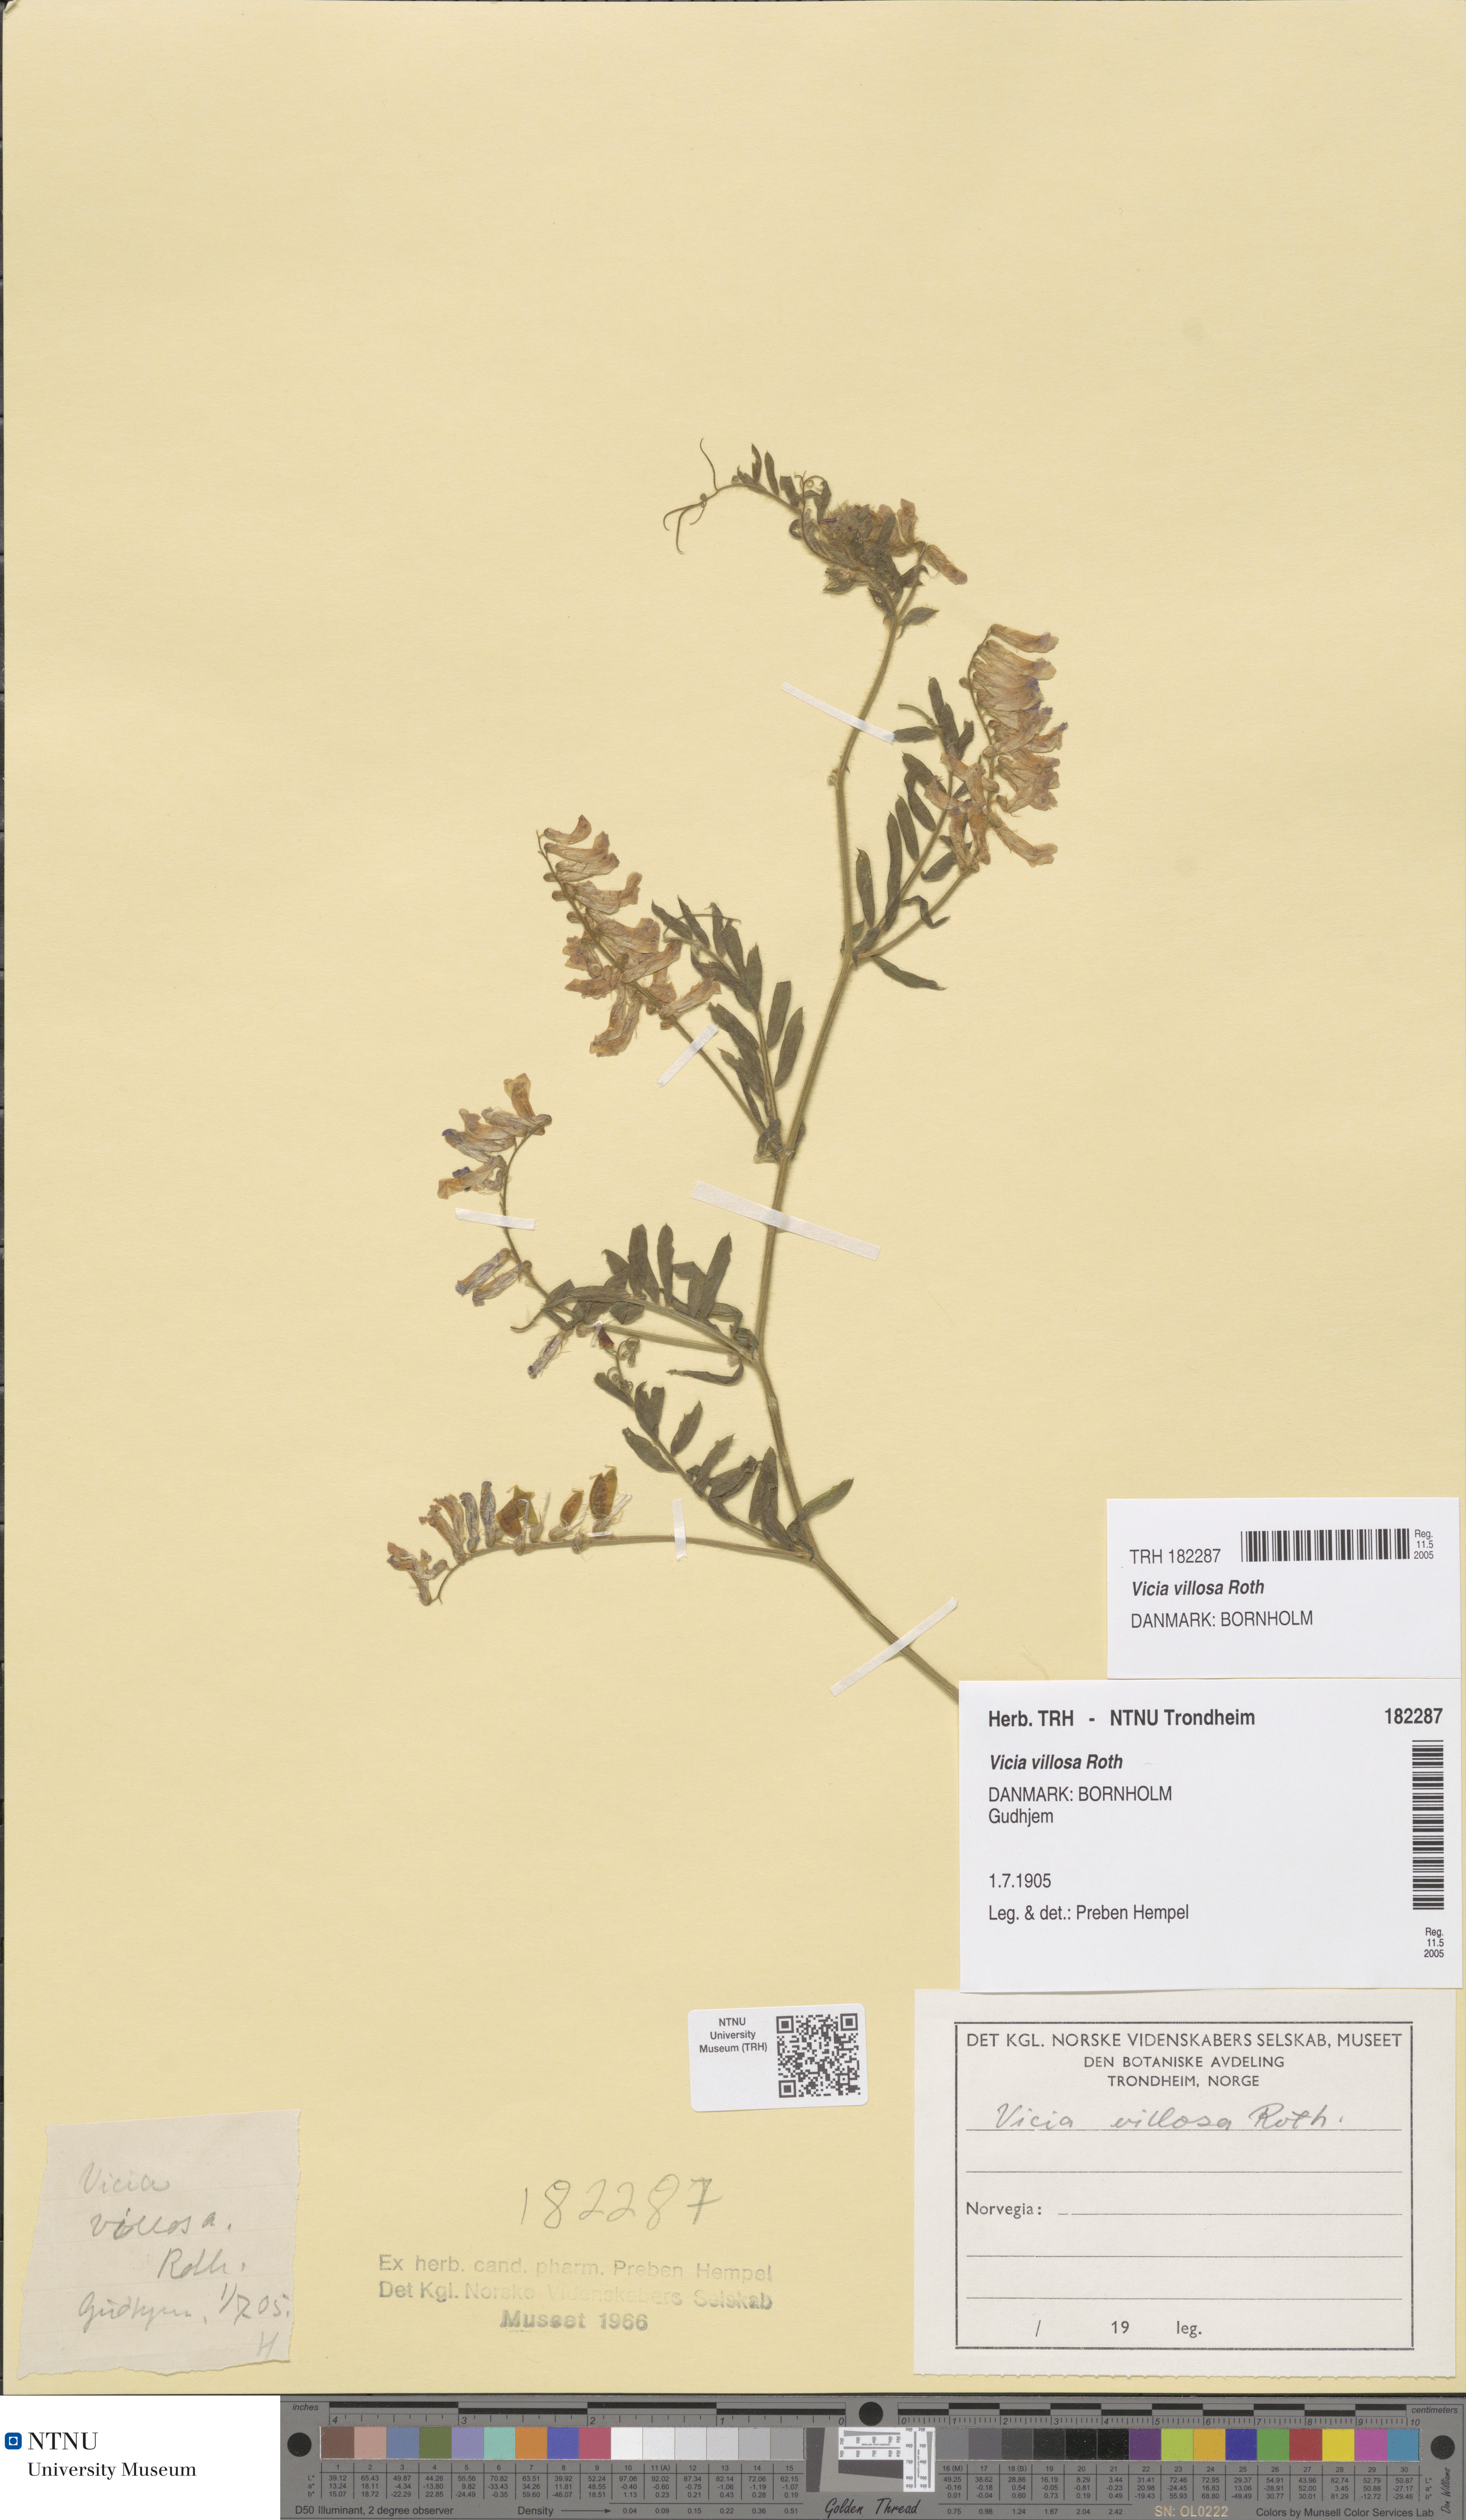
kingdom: Plantae
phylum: Tracheophyta
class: Magnoliopsida
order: Fabales
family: Fabaceae
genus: Vicia
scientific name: Vicia villosa
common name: Fodder vetch
